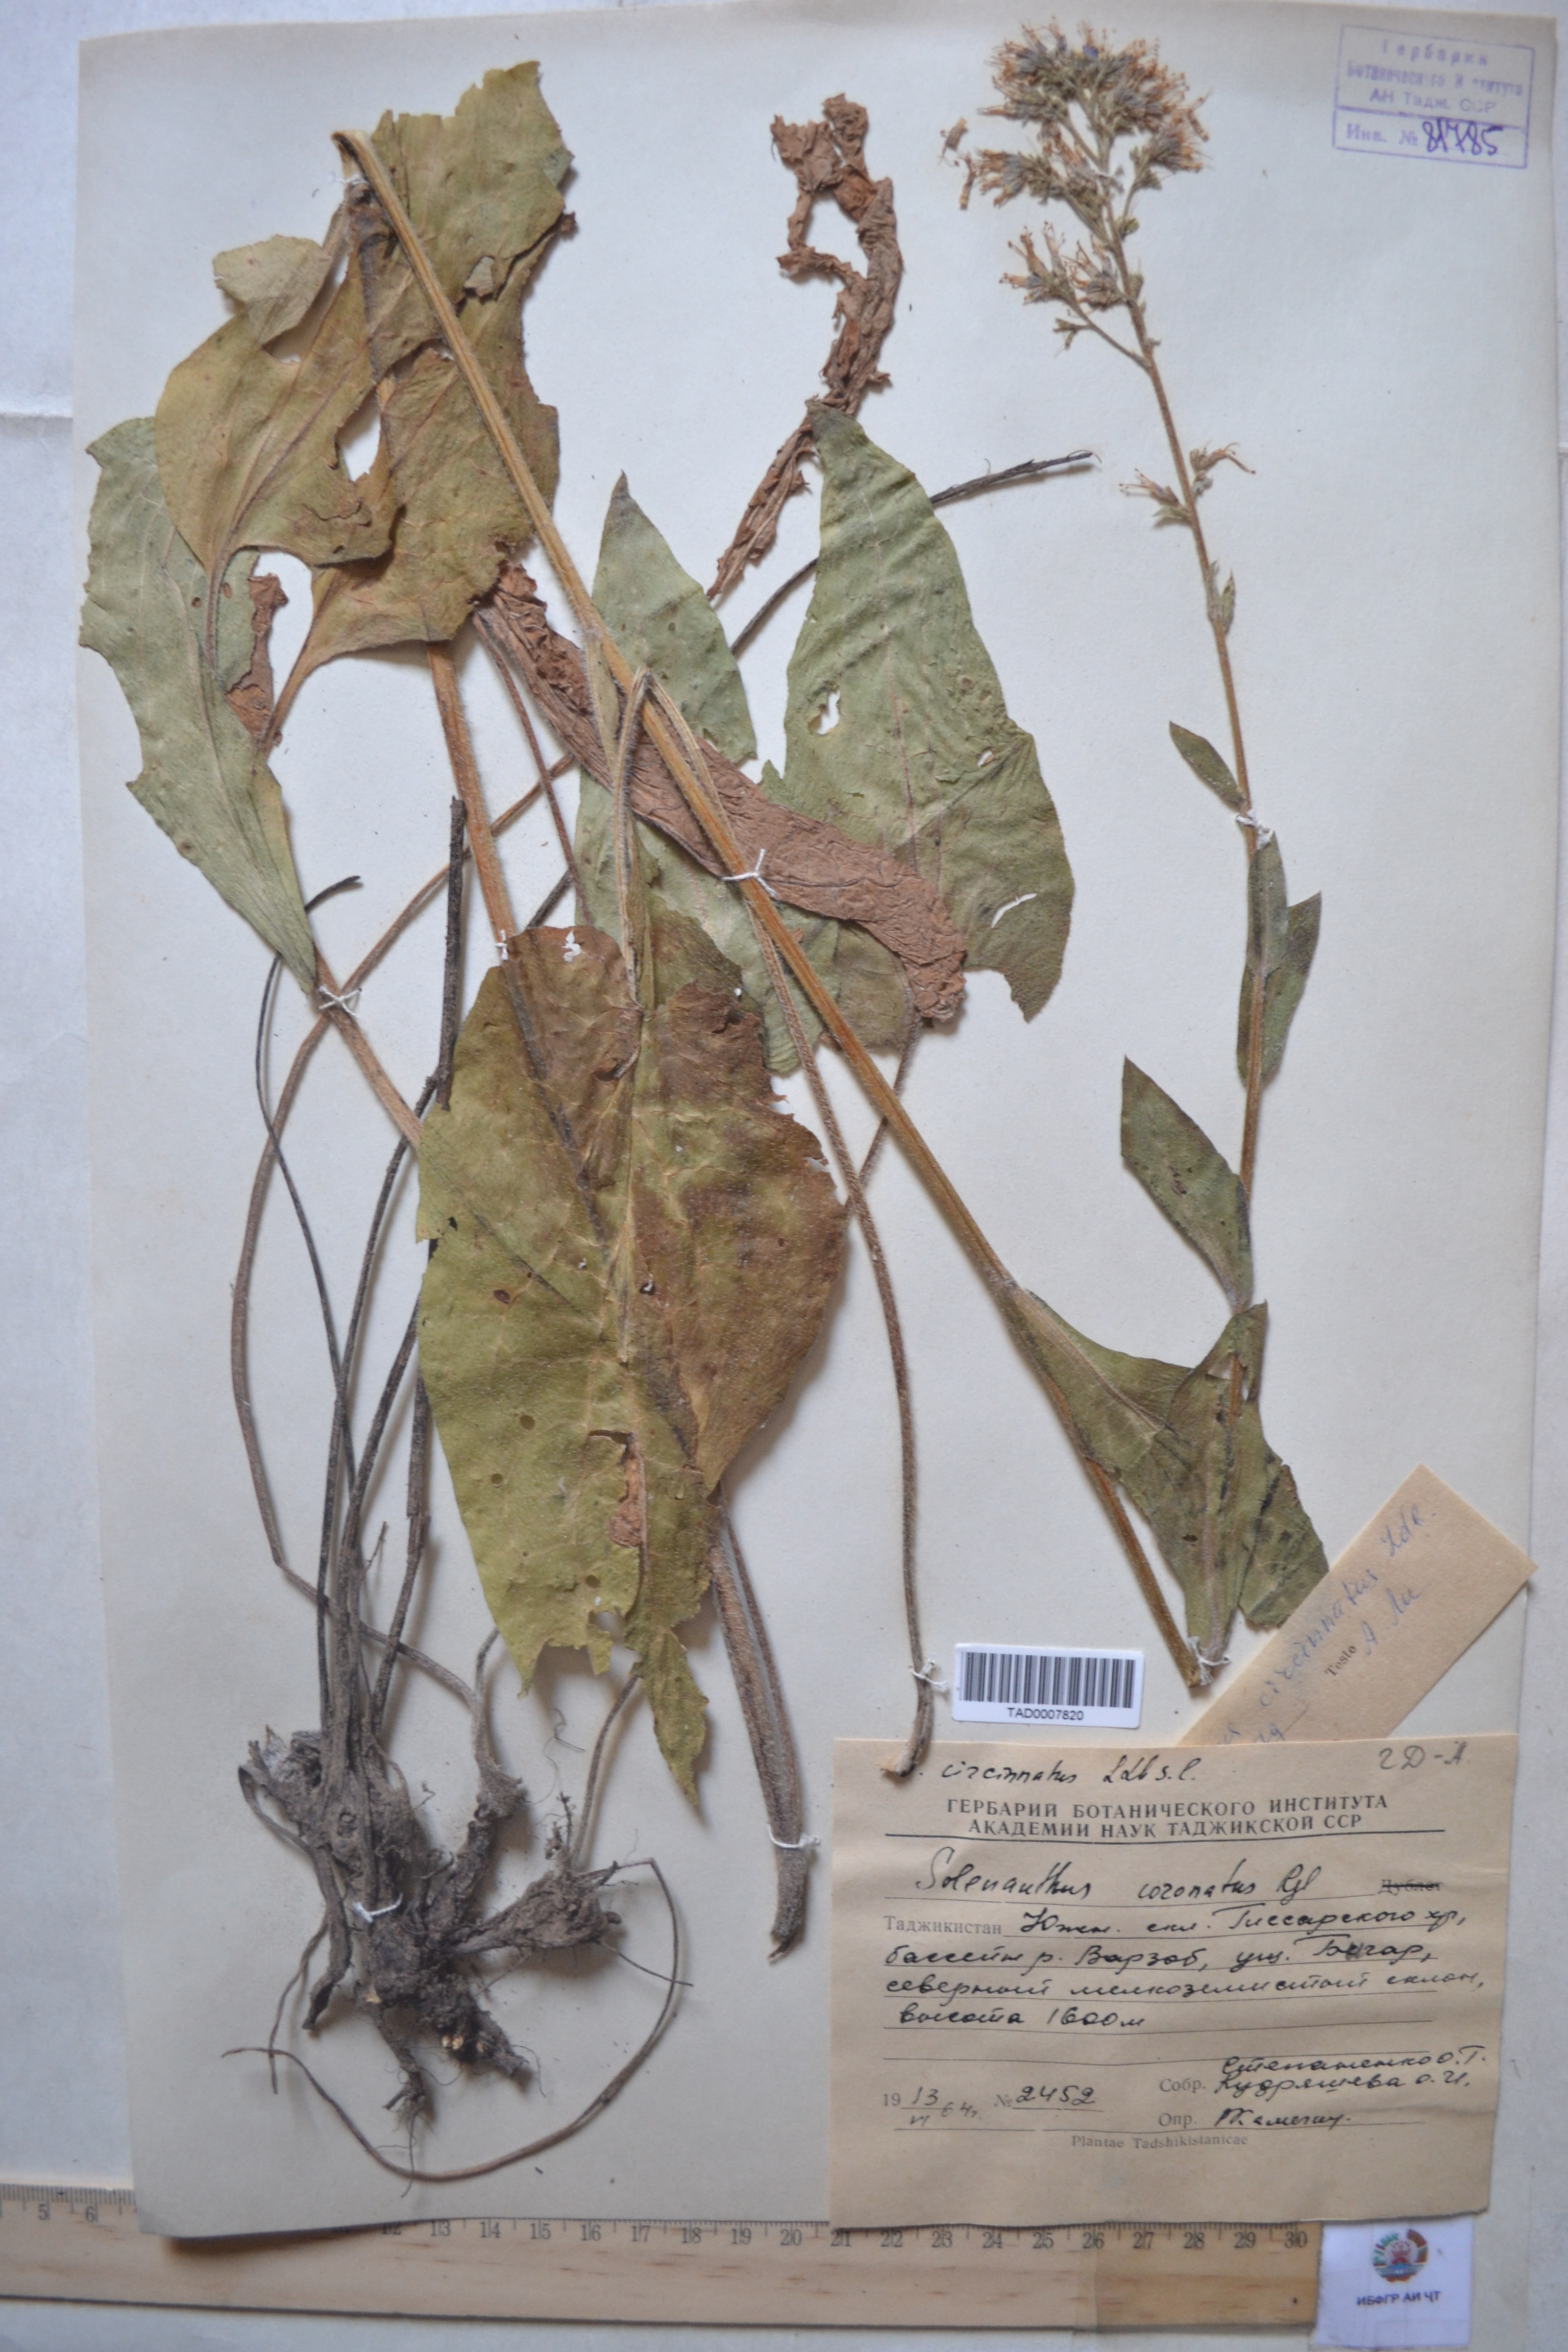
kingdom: Plantae
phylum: Tracheophyta
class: Magnoliopsida
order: Boraginales
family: Boraginaceae
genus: Solenanthus
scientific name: Solenanthus circinnatus
